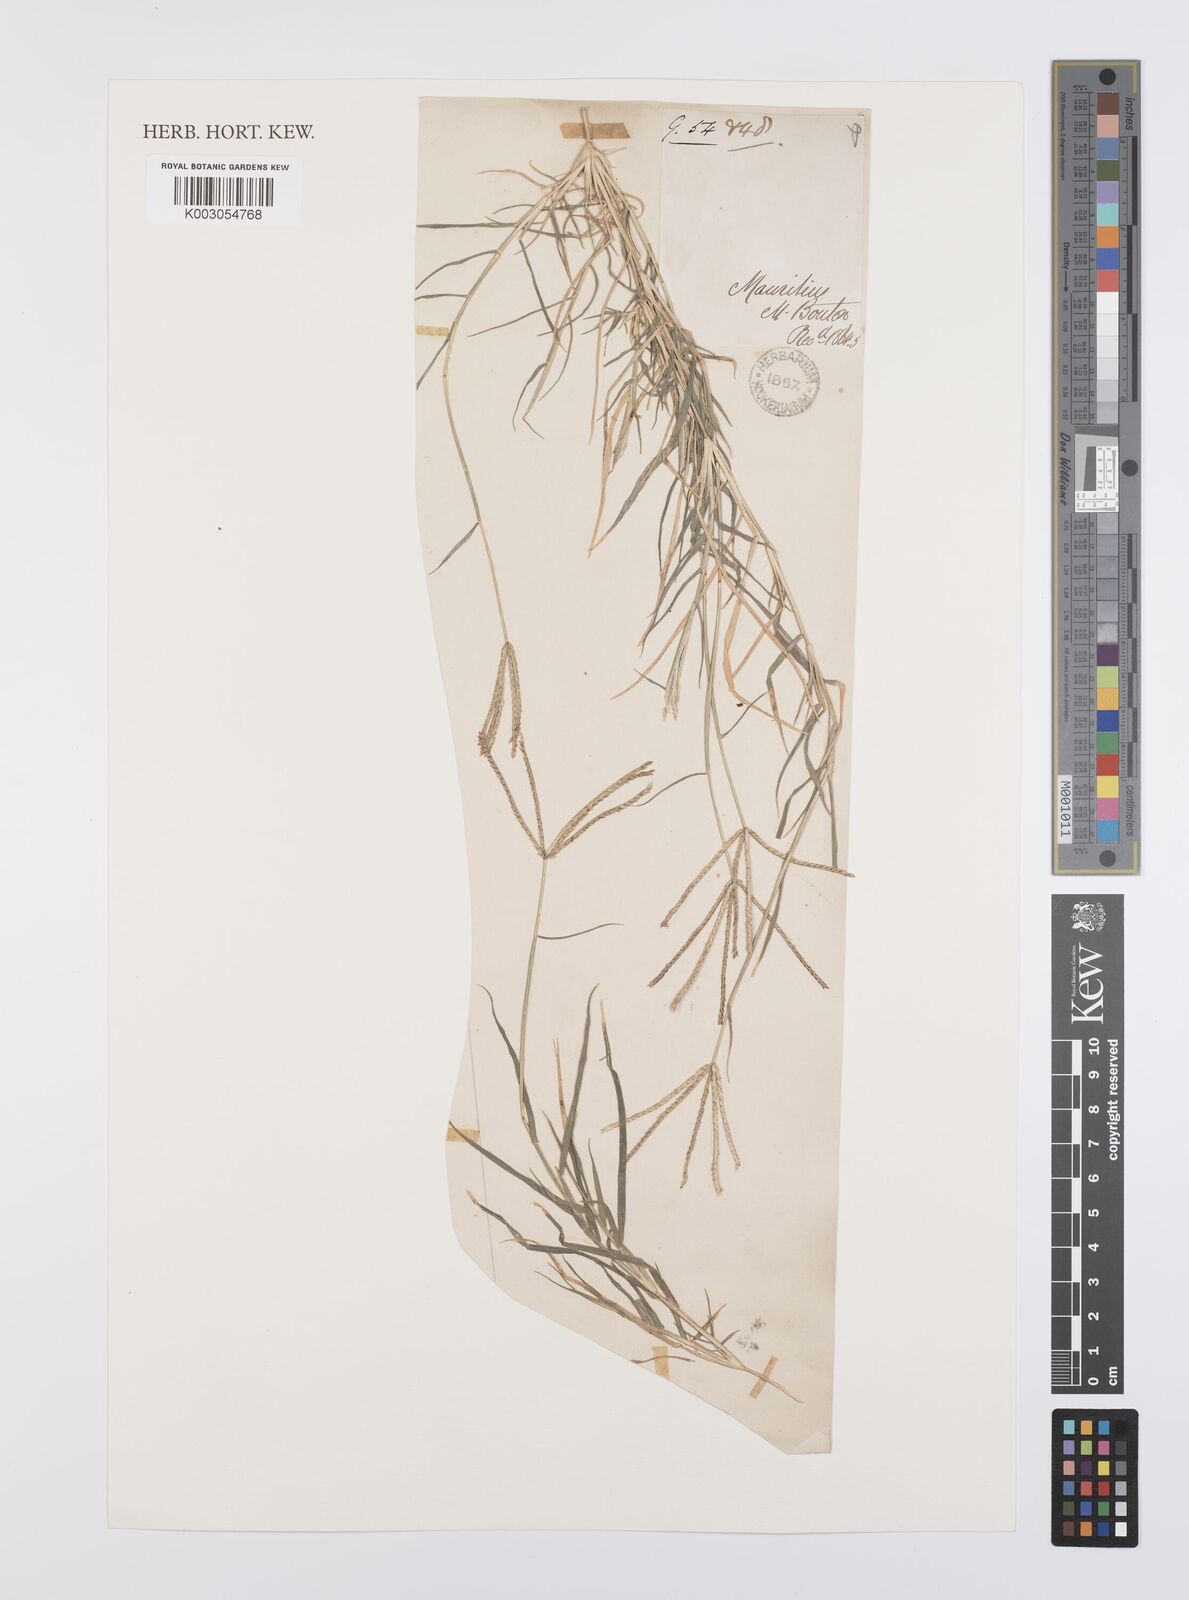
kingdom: Plantae
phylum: Tracheophyta
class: Liliopsida
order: Poales
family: Poaceae
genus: Cynodon
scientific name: Cynodon dactylon
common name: Bermuda grass
